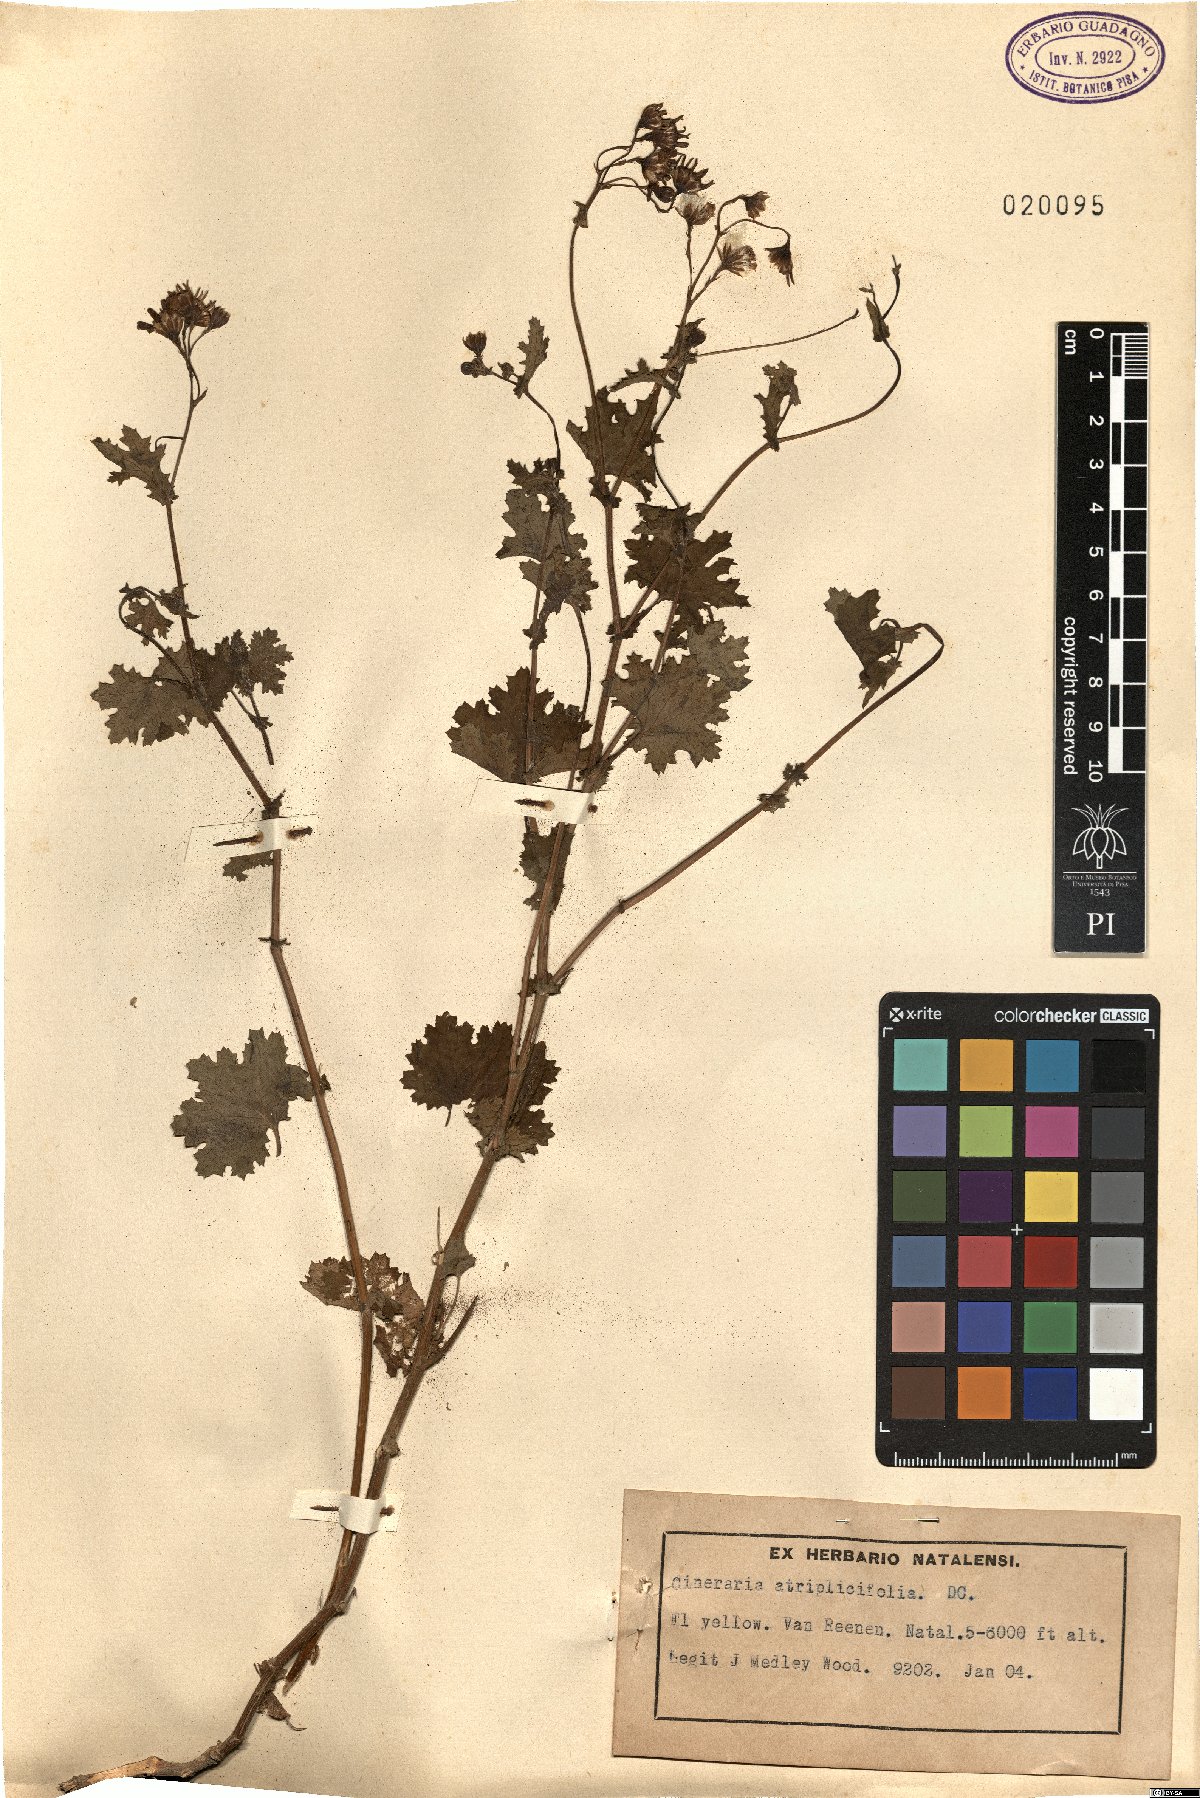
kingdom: Plantae
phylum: Tracheophyta
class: Magnoliopsida
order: Asterales
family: Asteraceae
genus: Cineraria
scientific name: Cineraria atriplicifolia
